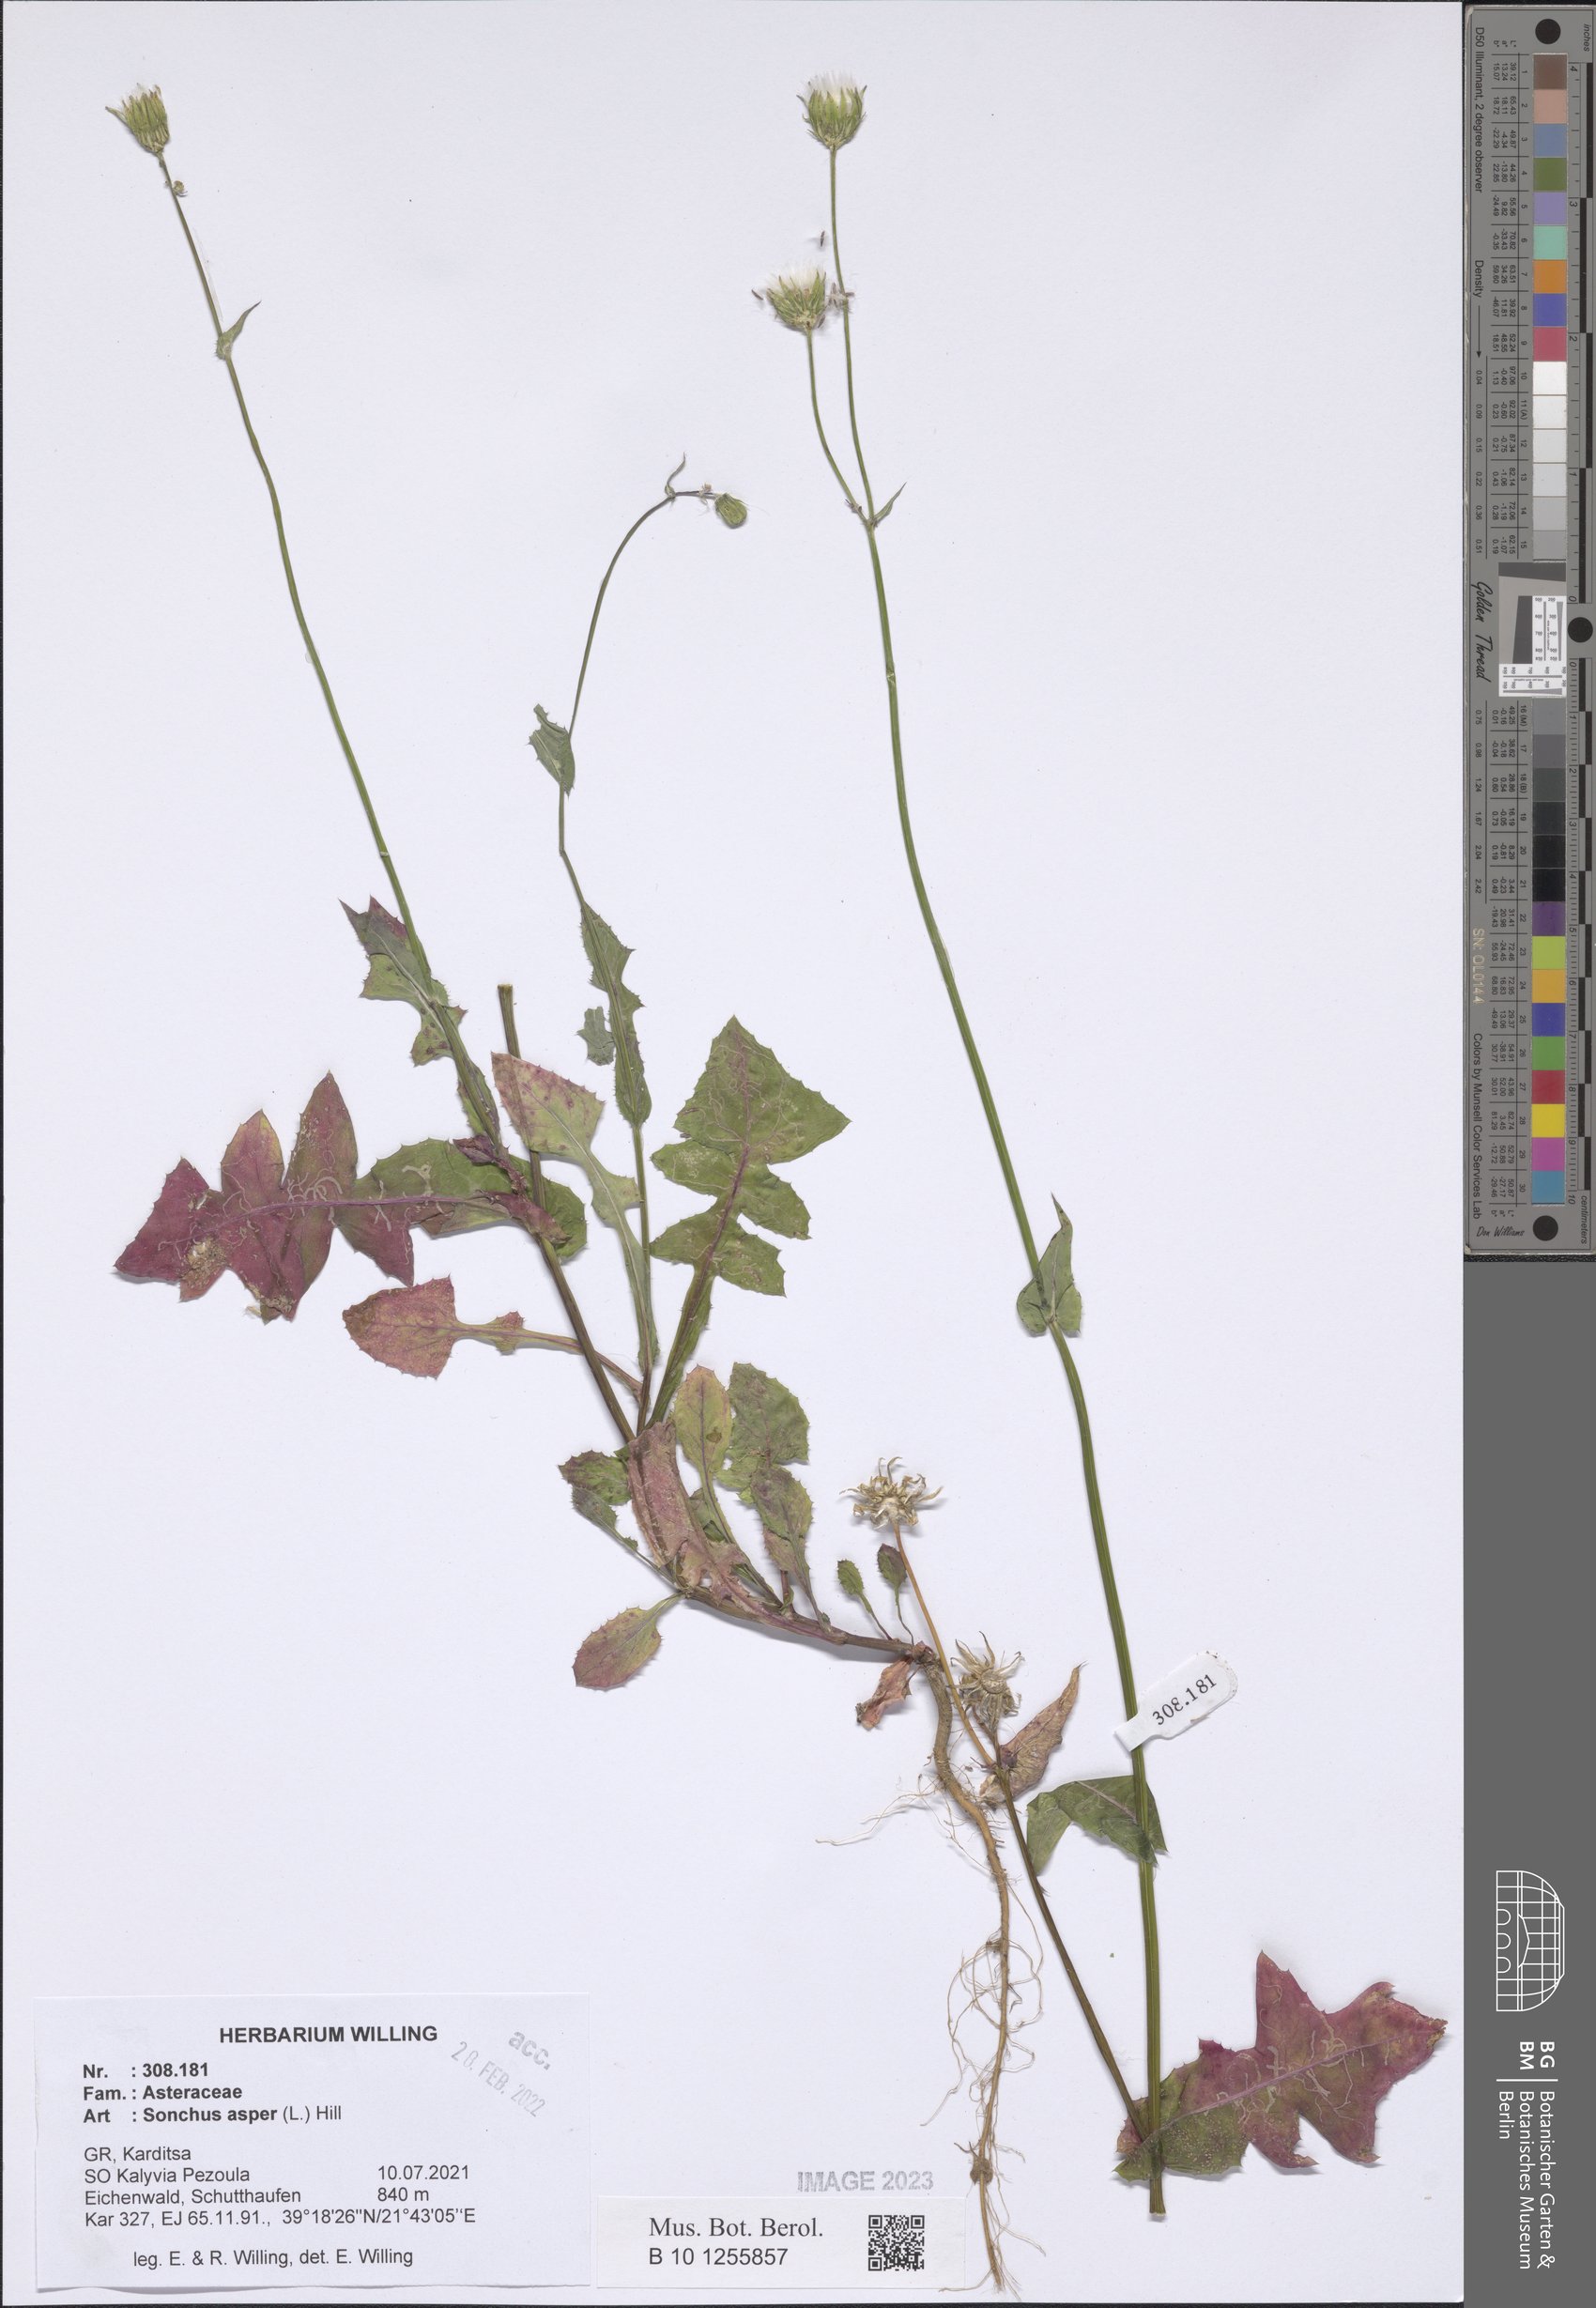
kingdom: Plantae
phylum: Tracheophyta
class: Magnoliopsida
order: Asterales
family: Asteraceae
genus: Sonchus
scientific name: Sonchus asper
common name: Prickly sow-thistle
